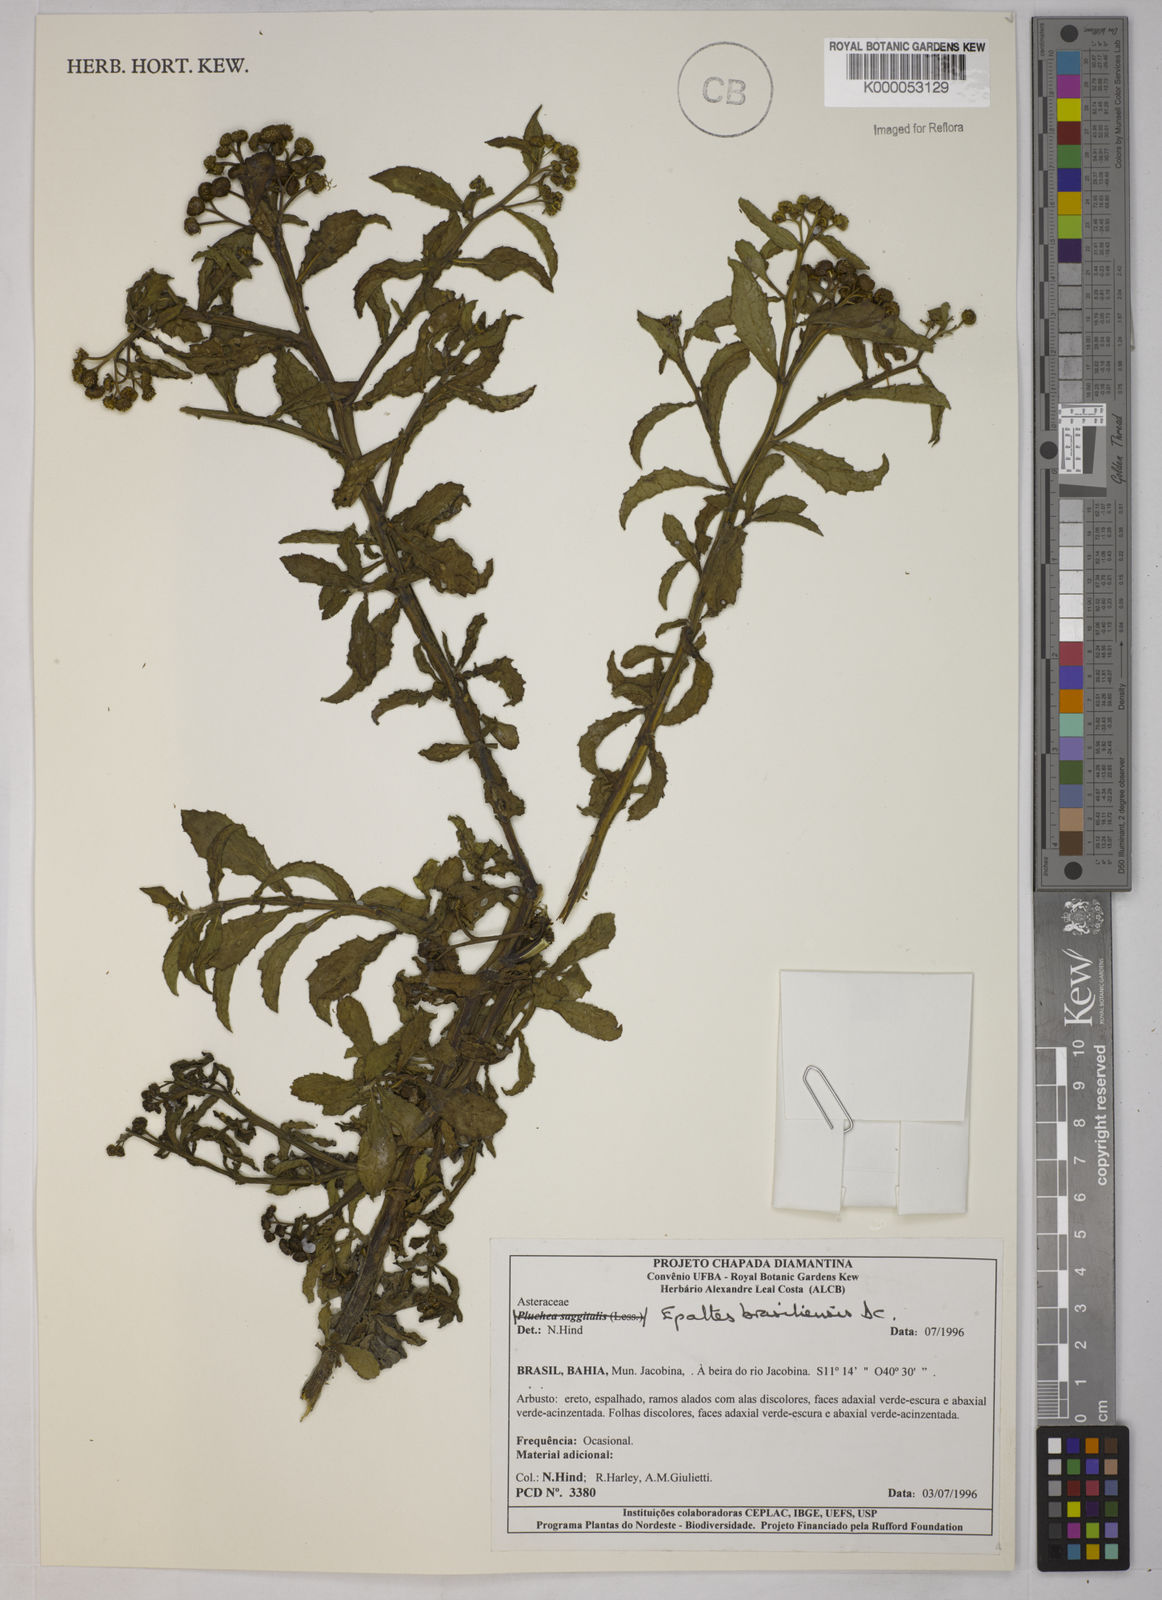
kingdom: Plantae
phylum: Tracheophyta
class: Magnoliopsida
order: Asterales
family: Asteraceae
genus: Epaltes
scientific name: Epaltes brasiliensis
